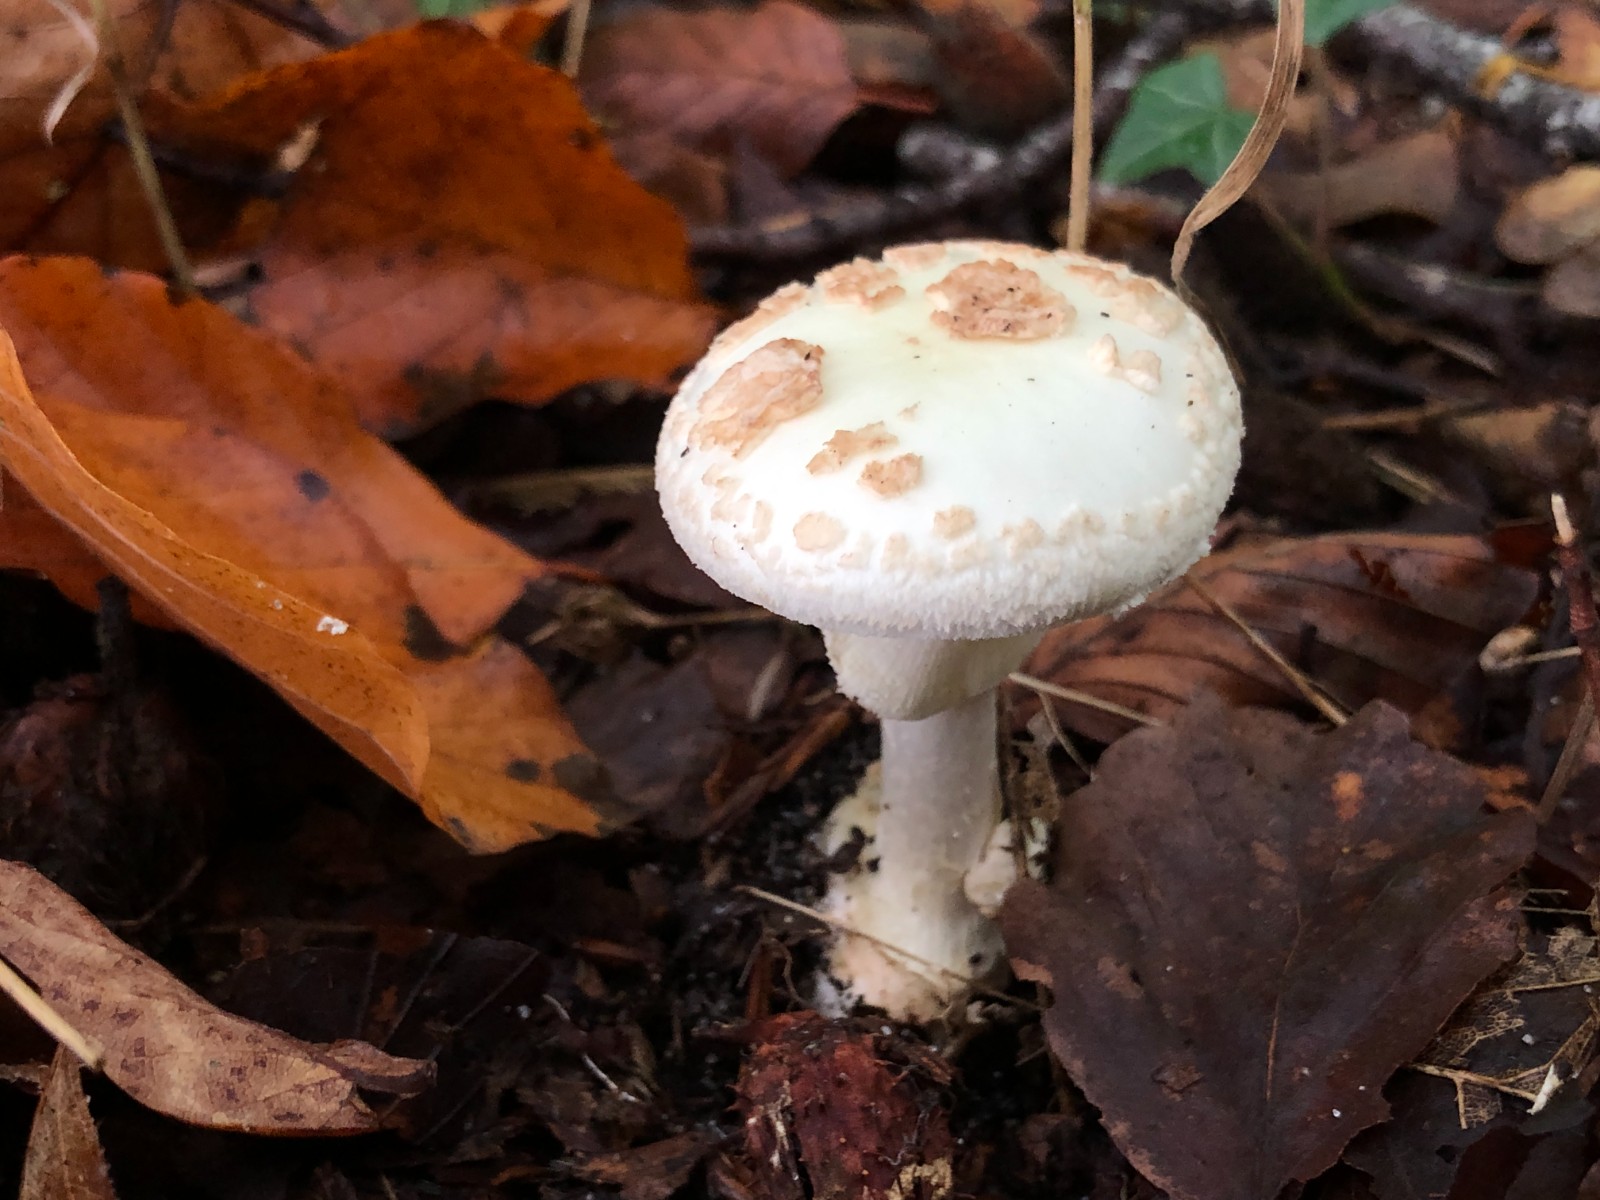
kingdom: Fungi
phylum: Basidiomycota
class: Agaricomycetes
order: Agaricales
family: Amanitaceae
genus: Amanita
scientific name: Amanita citrina
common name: kugleknoldet fluesvamp
